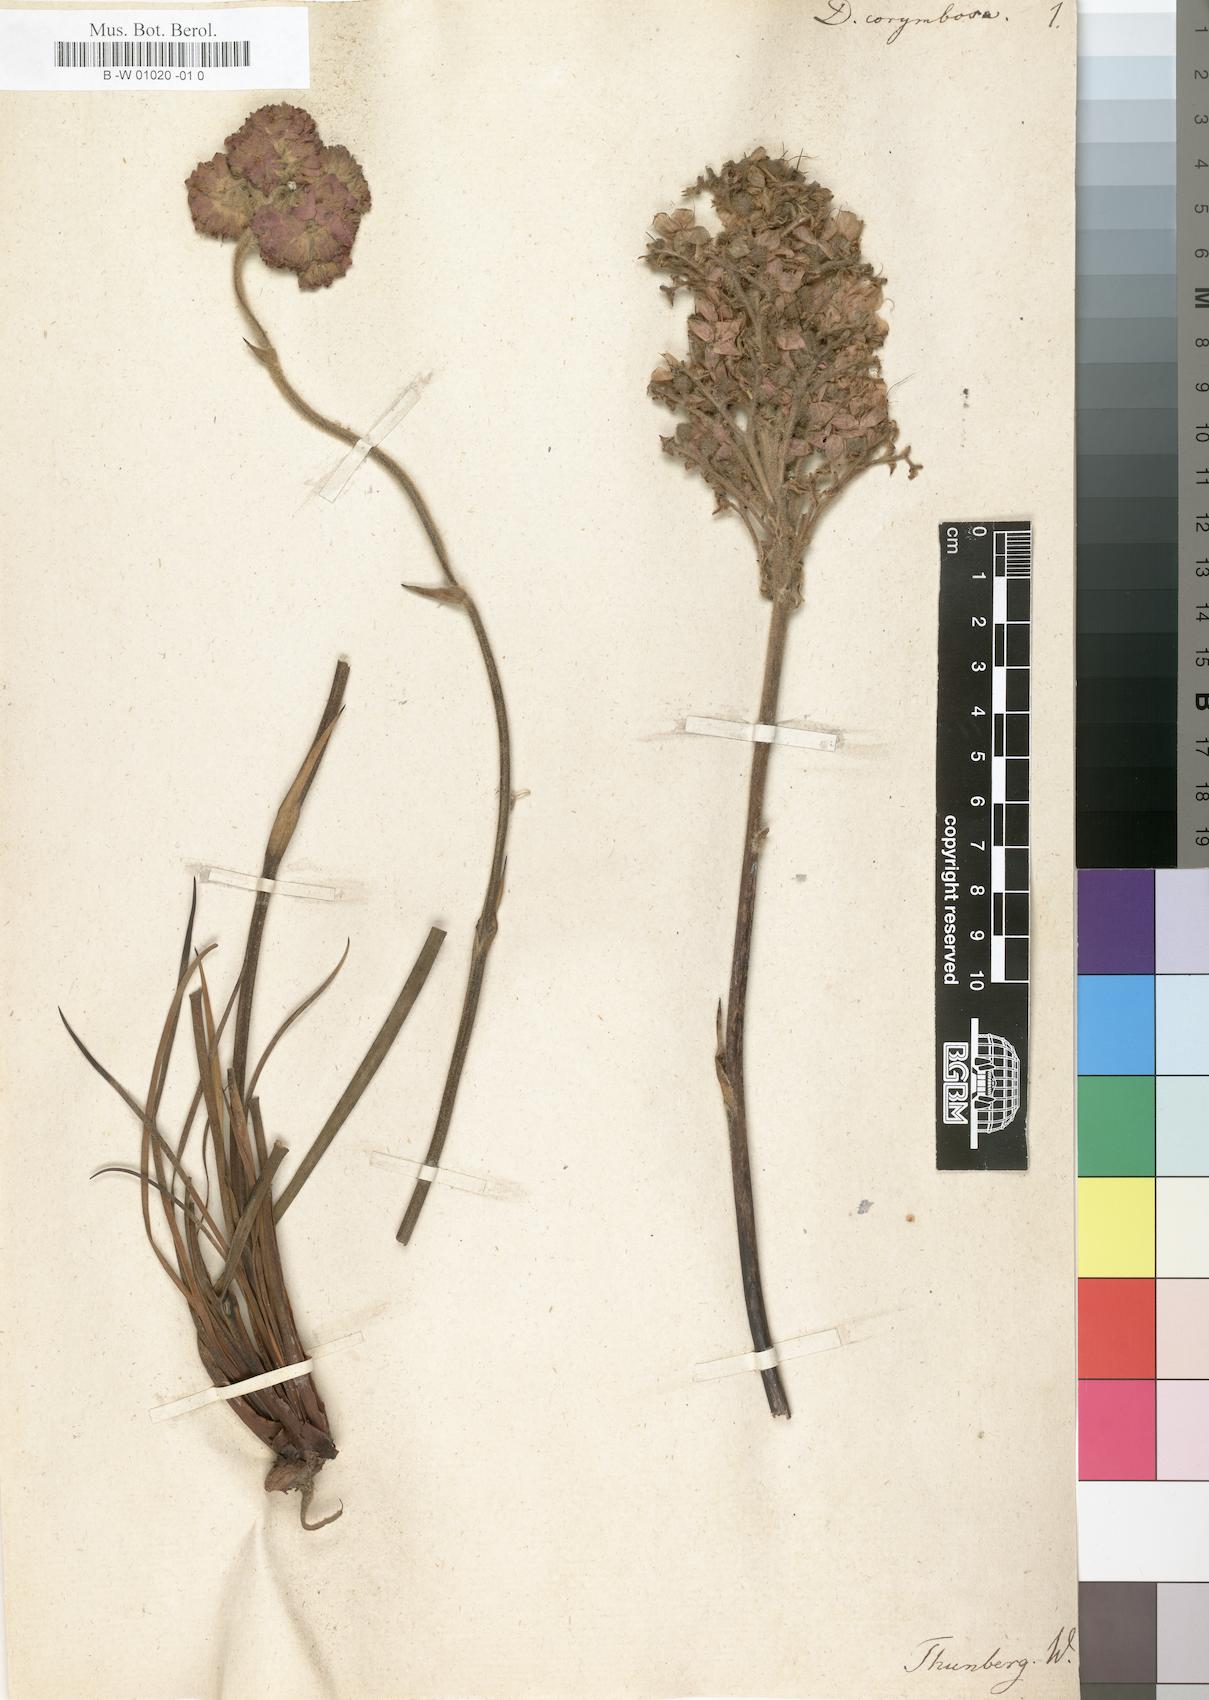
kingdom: Plantae
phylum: Tracheophyta
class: Liliopsida
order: Commelinales
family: Haemodoraceae
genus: Dilatris
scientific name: Dilatris corymbosa
